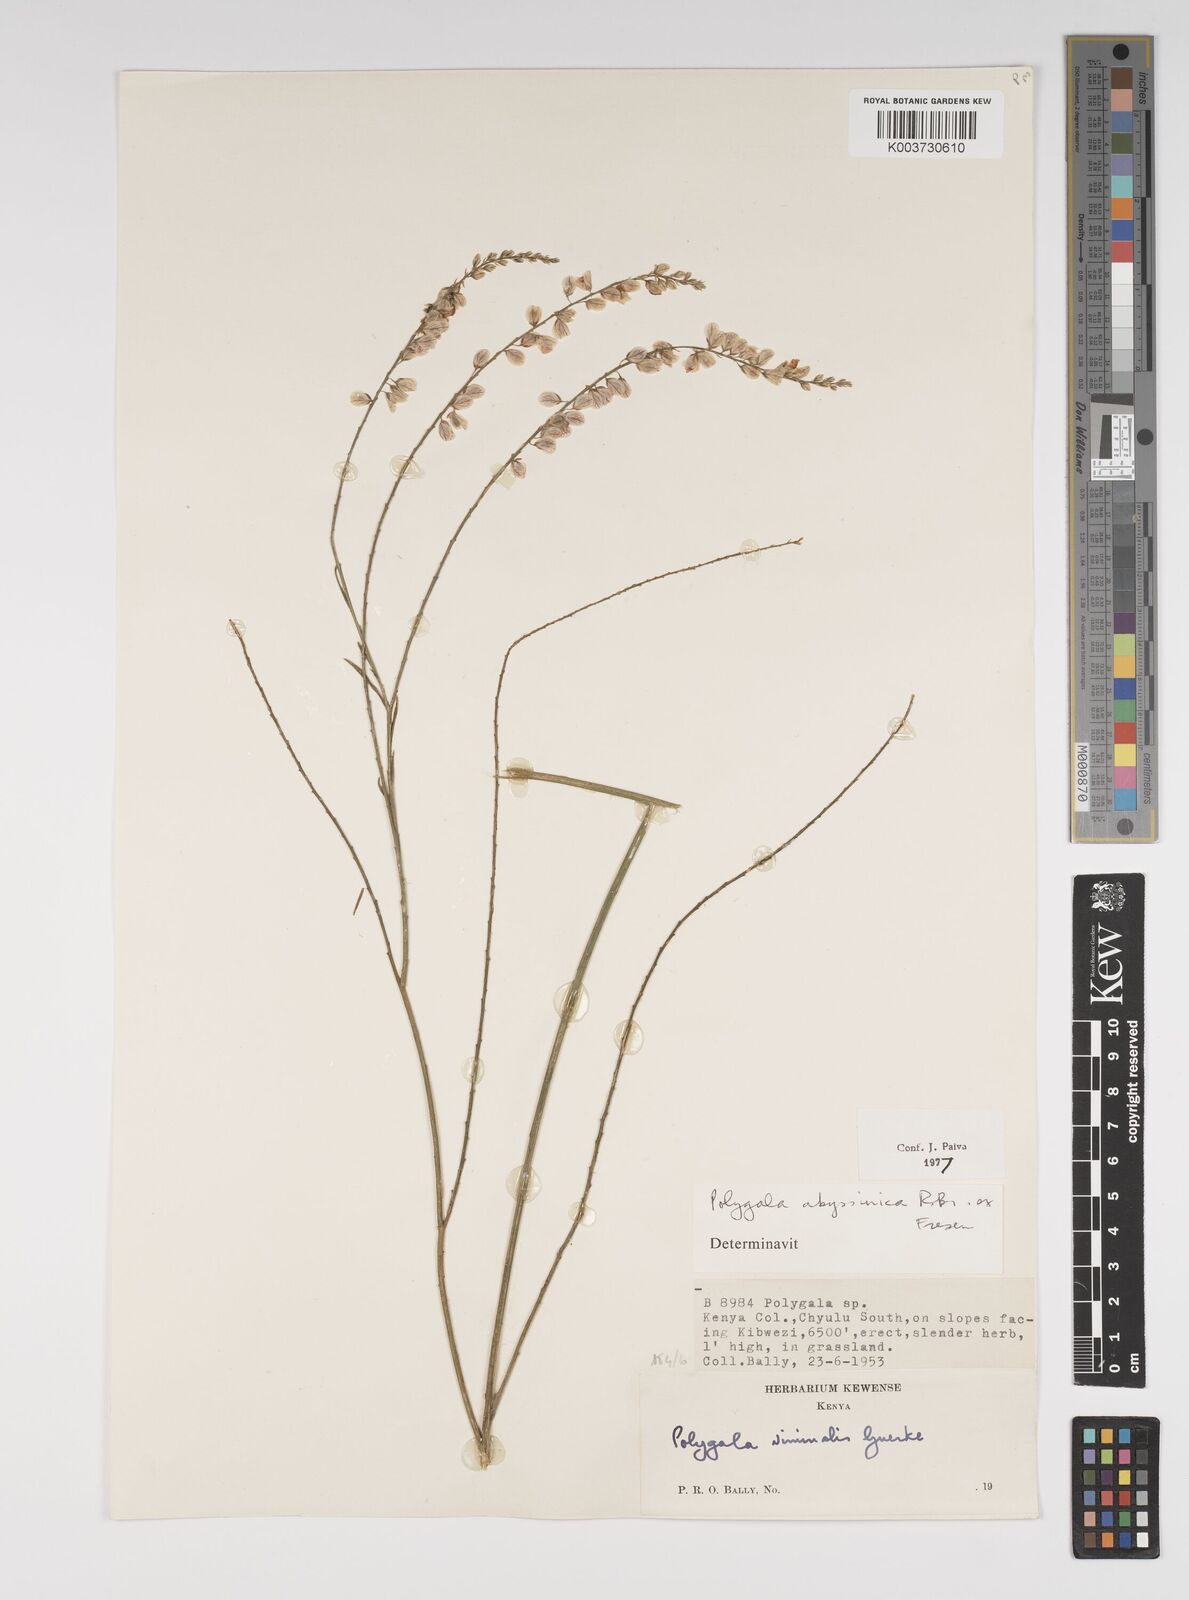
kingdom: Plantae
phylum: Tracheophyta
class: Magnoliopsida
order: Fabales
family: Polygalaceae
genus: Polygala
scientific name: Polygala abyssinica
